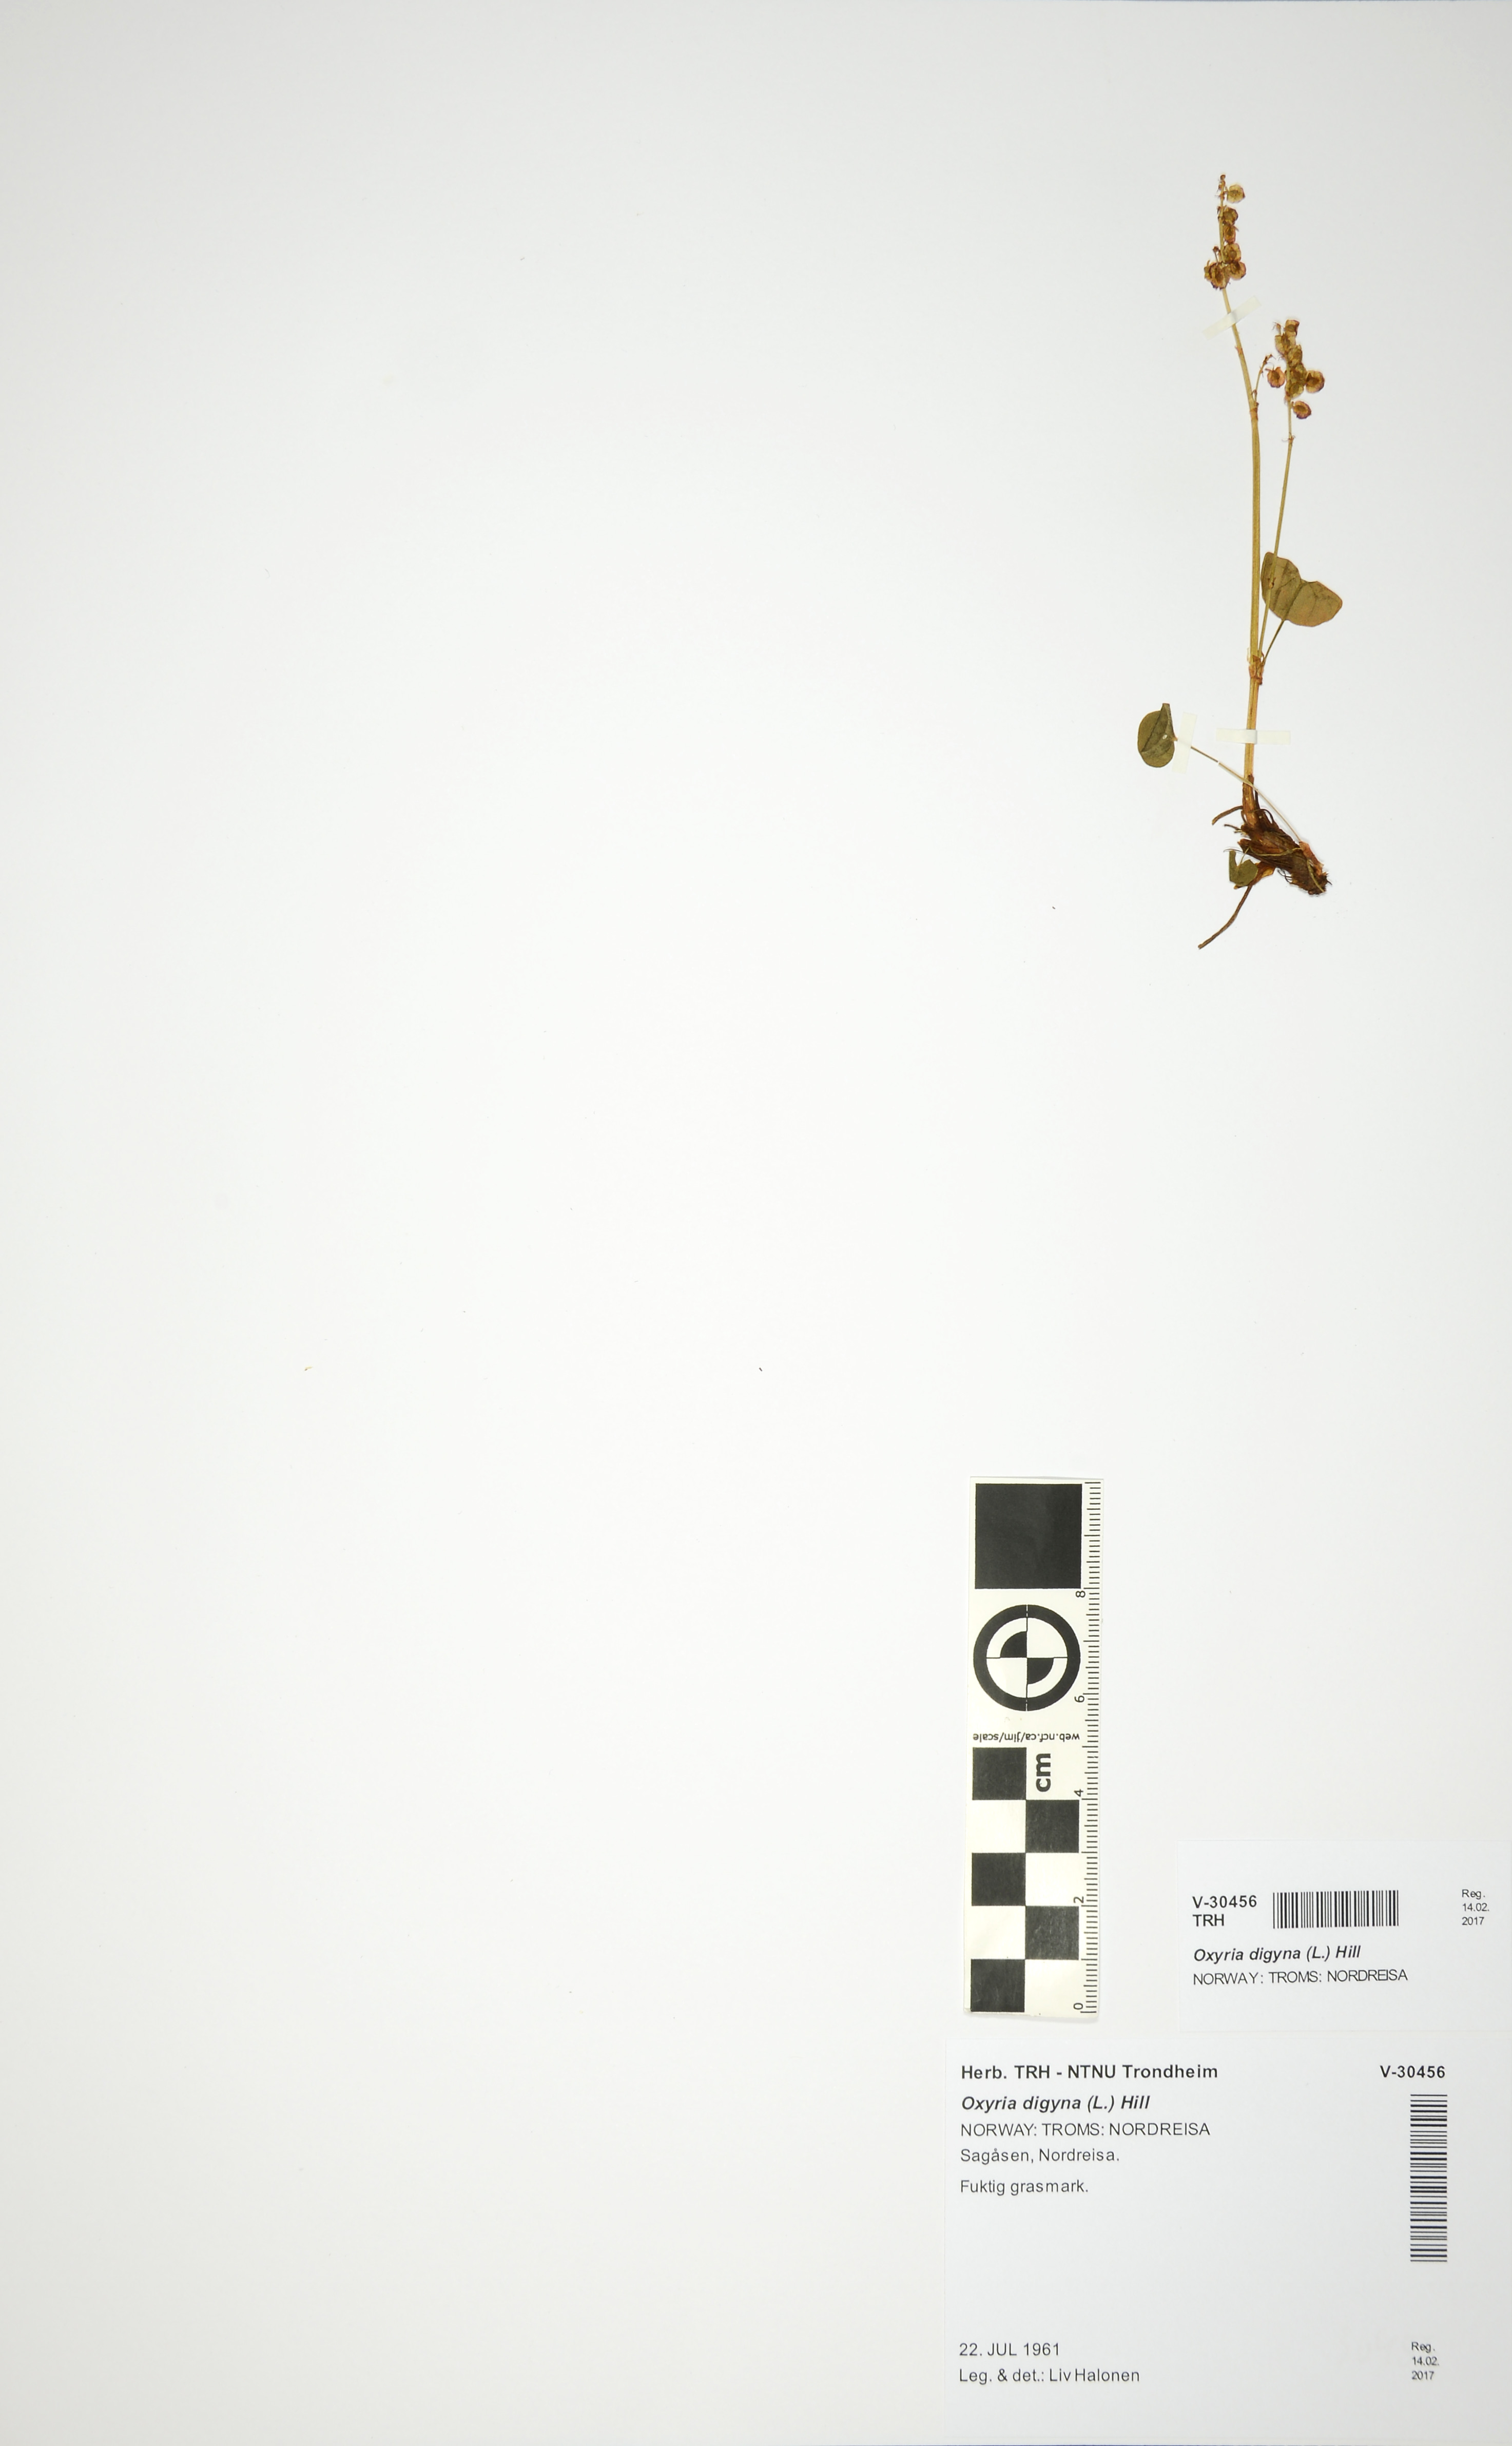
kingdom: Plantae
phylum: Tracheophyta
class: Magnoliopsida
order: Caryophyllales
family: Polygonaceae
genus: Oxyria
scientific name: Oxyria digyna
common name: Alpine mountain-sorrel
